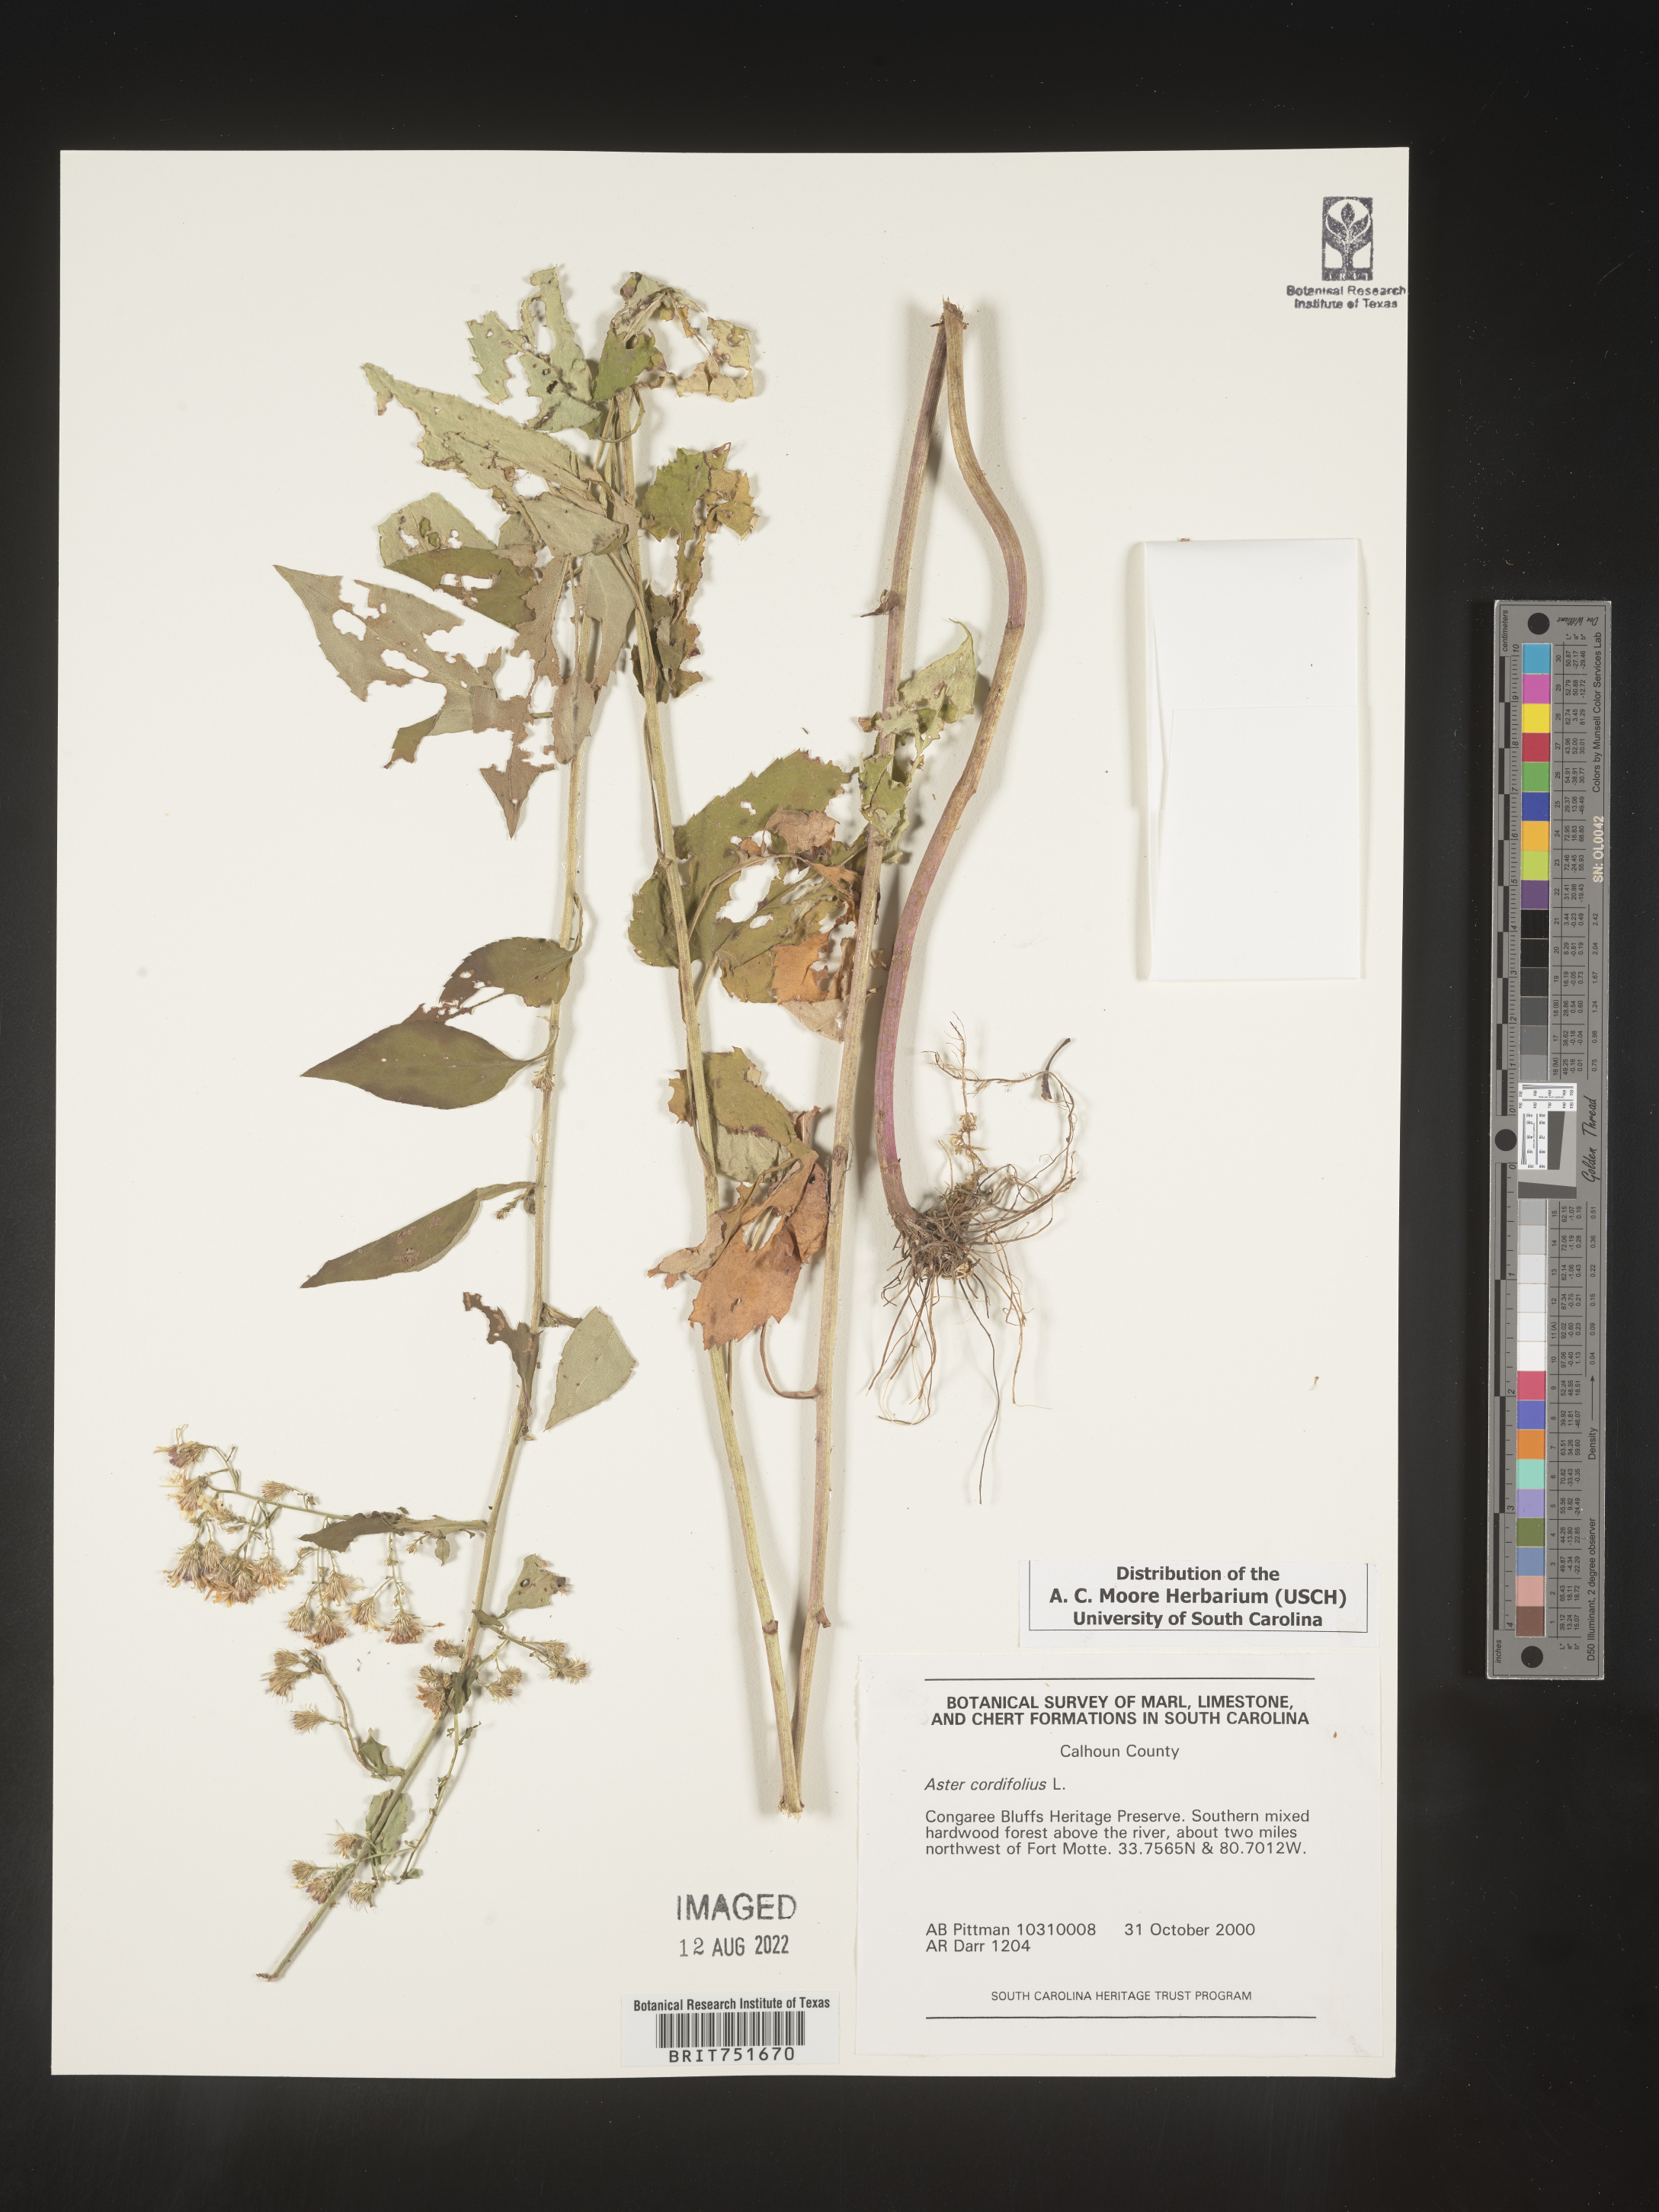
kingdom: Plantae
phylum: Tracheophyta
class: Magnoliopsida
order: Asterales
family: Asteraceae
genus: Symphyotrichum
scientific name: Symphyotrichum cordifolium
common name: Beeweed
